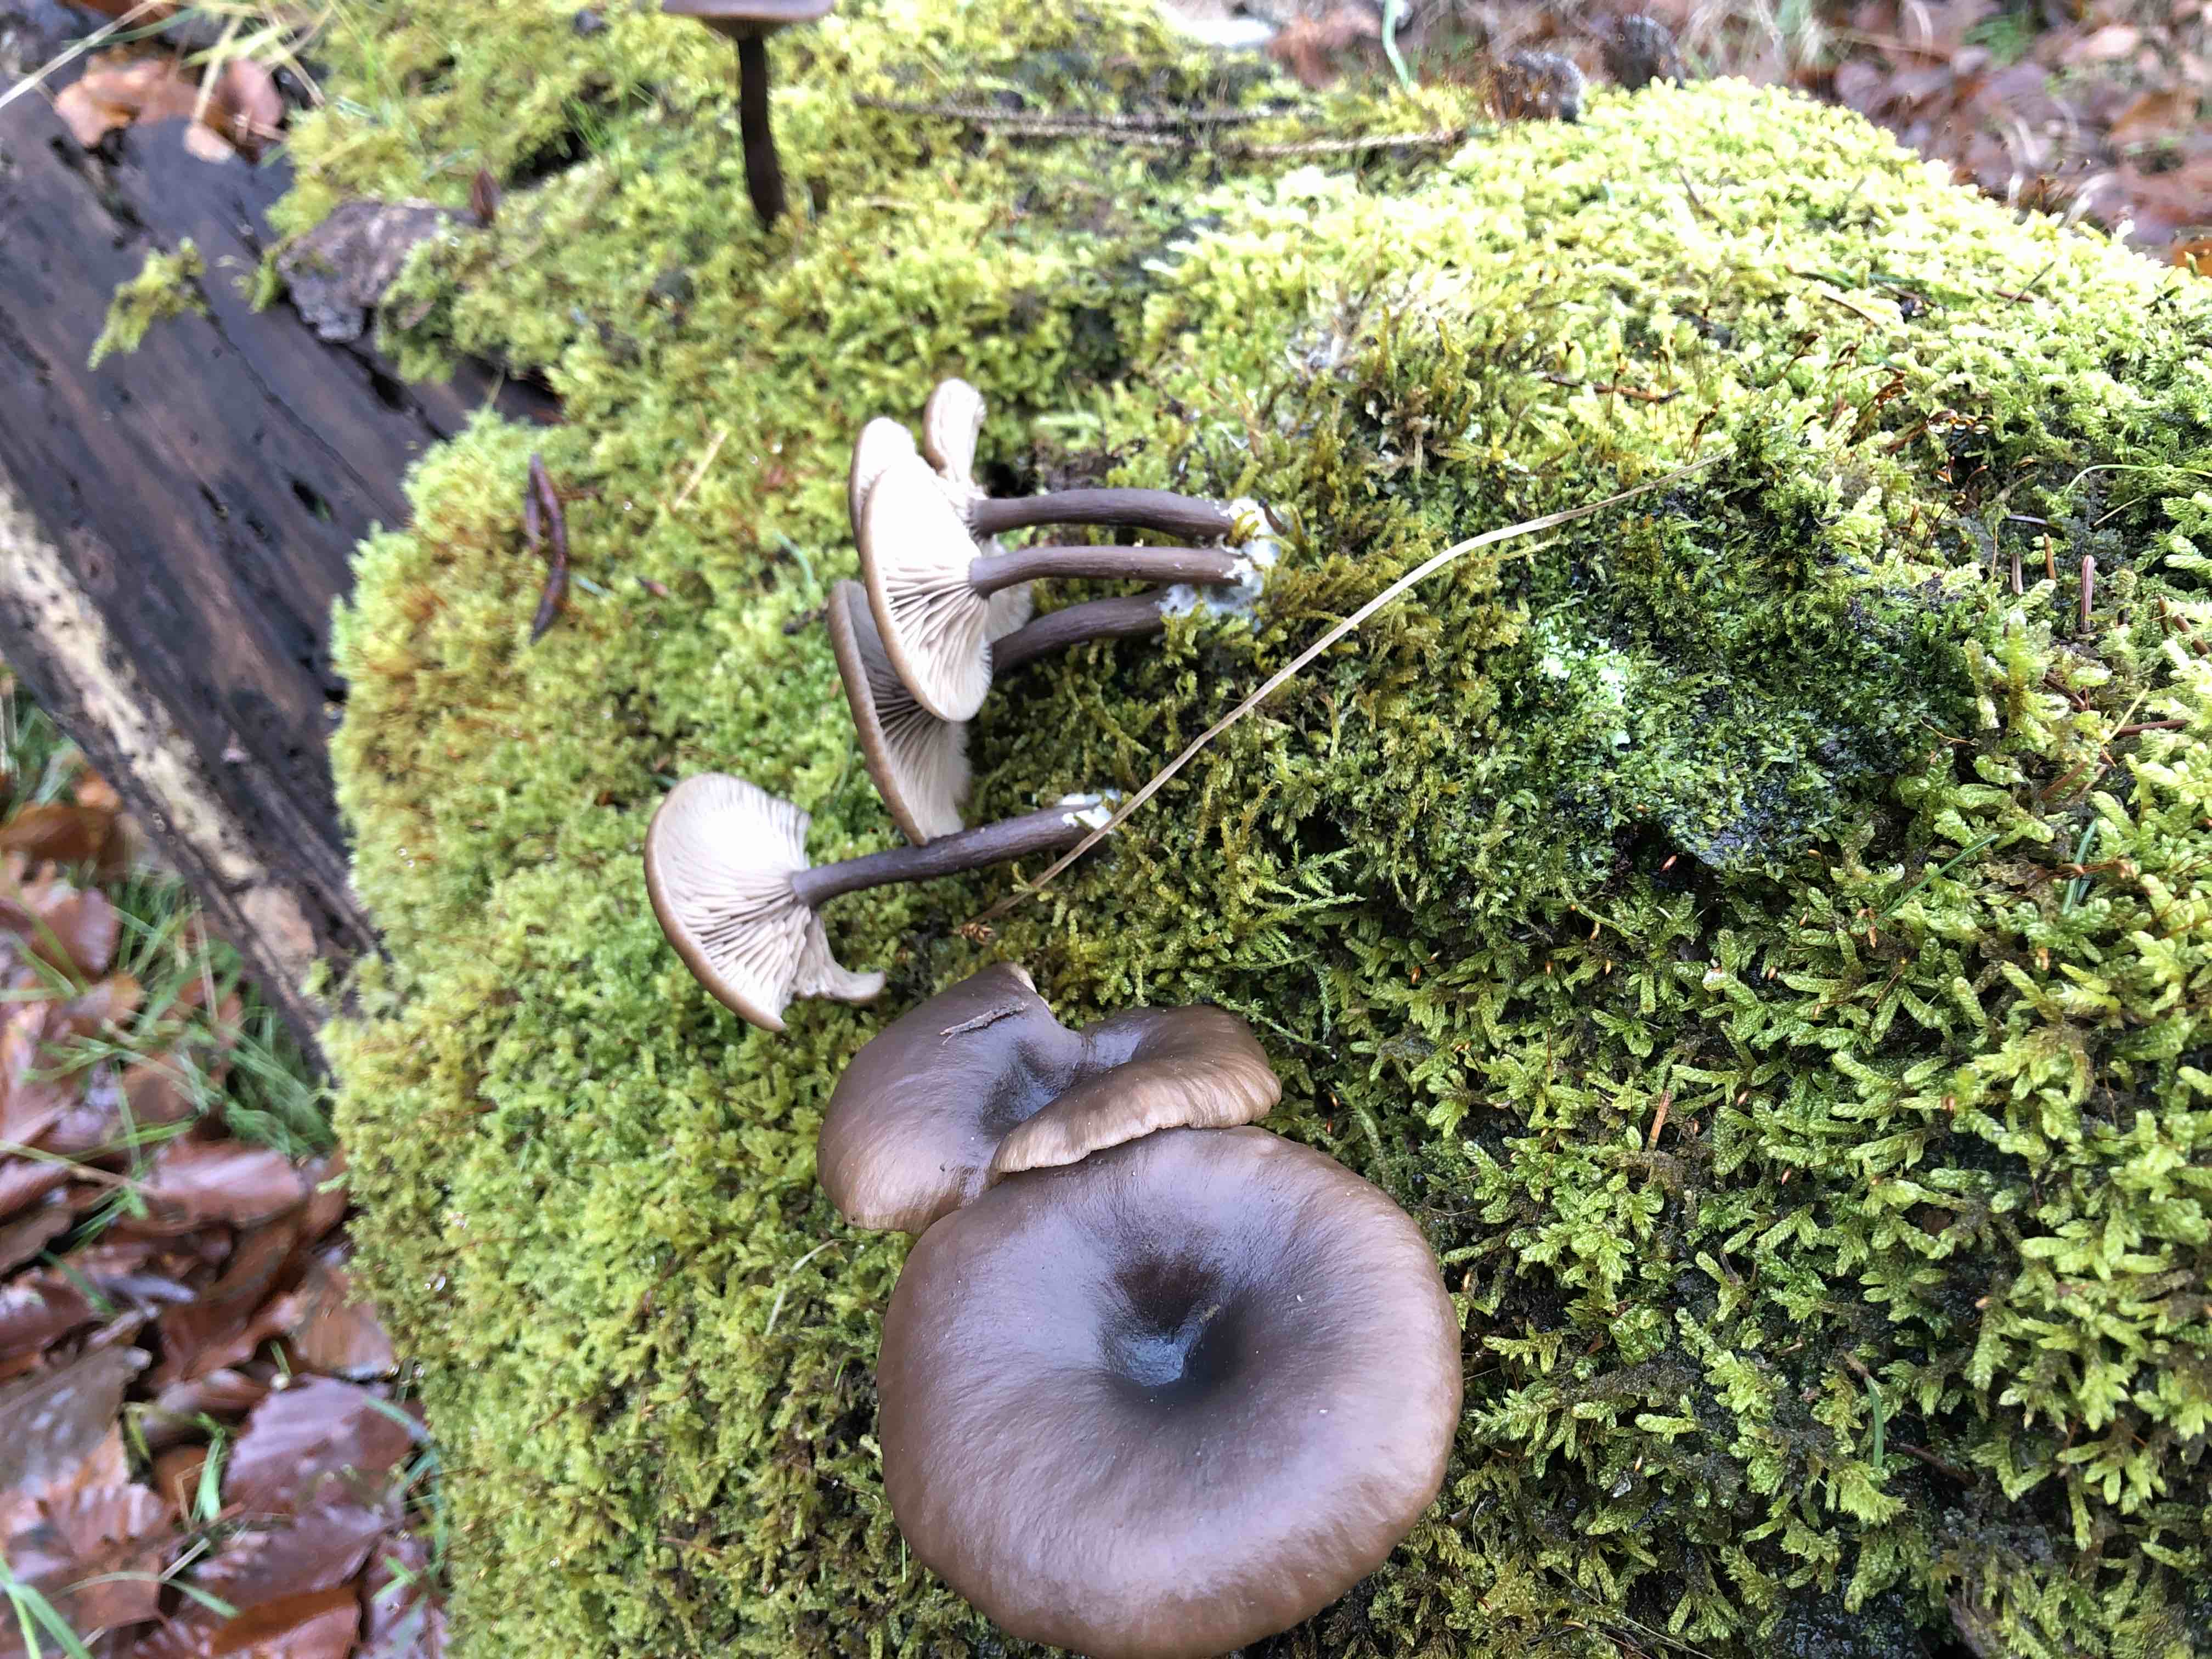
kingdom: Fungi
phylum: Basidiomycota
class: Agaricomycetes
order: Agaricales
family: Pseudoclitocybaceae
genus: Pseudoclitocybe
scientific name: Pseudoclitocybe cyathiformis
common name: almindelig bægertragthat
